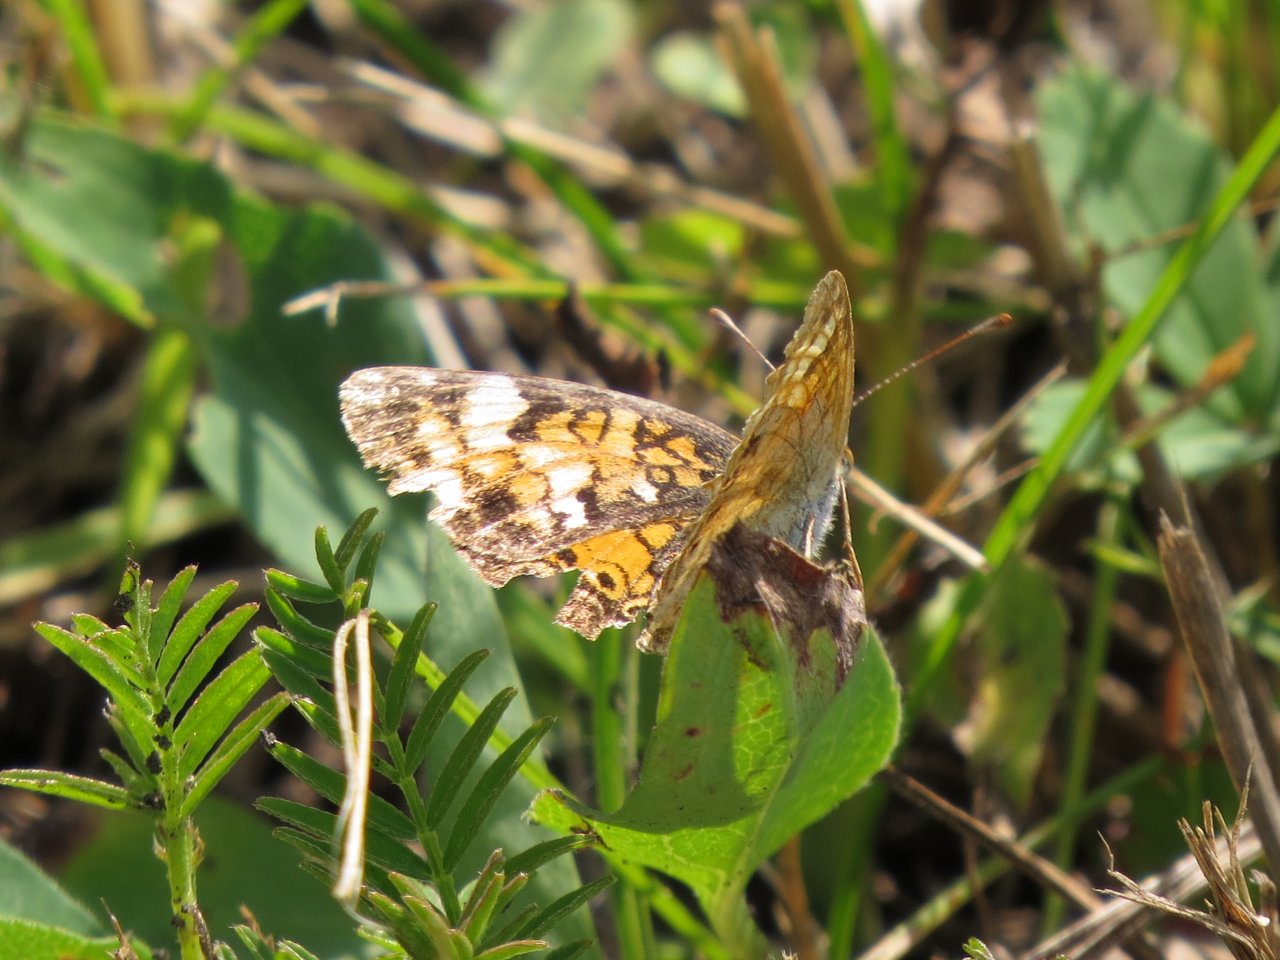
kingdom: Animalia
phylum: Arthropoda
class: Insecta
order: Lepidoptera
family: Nymphalidae
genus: Phyciodes
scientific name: Phyciodes tharos
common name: Northern Crescent
